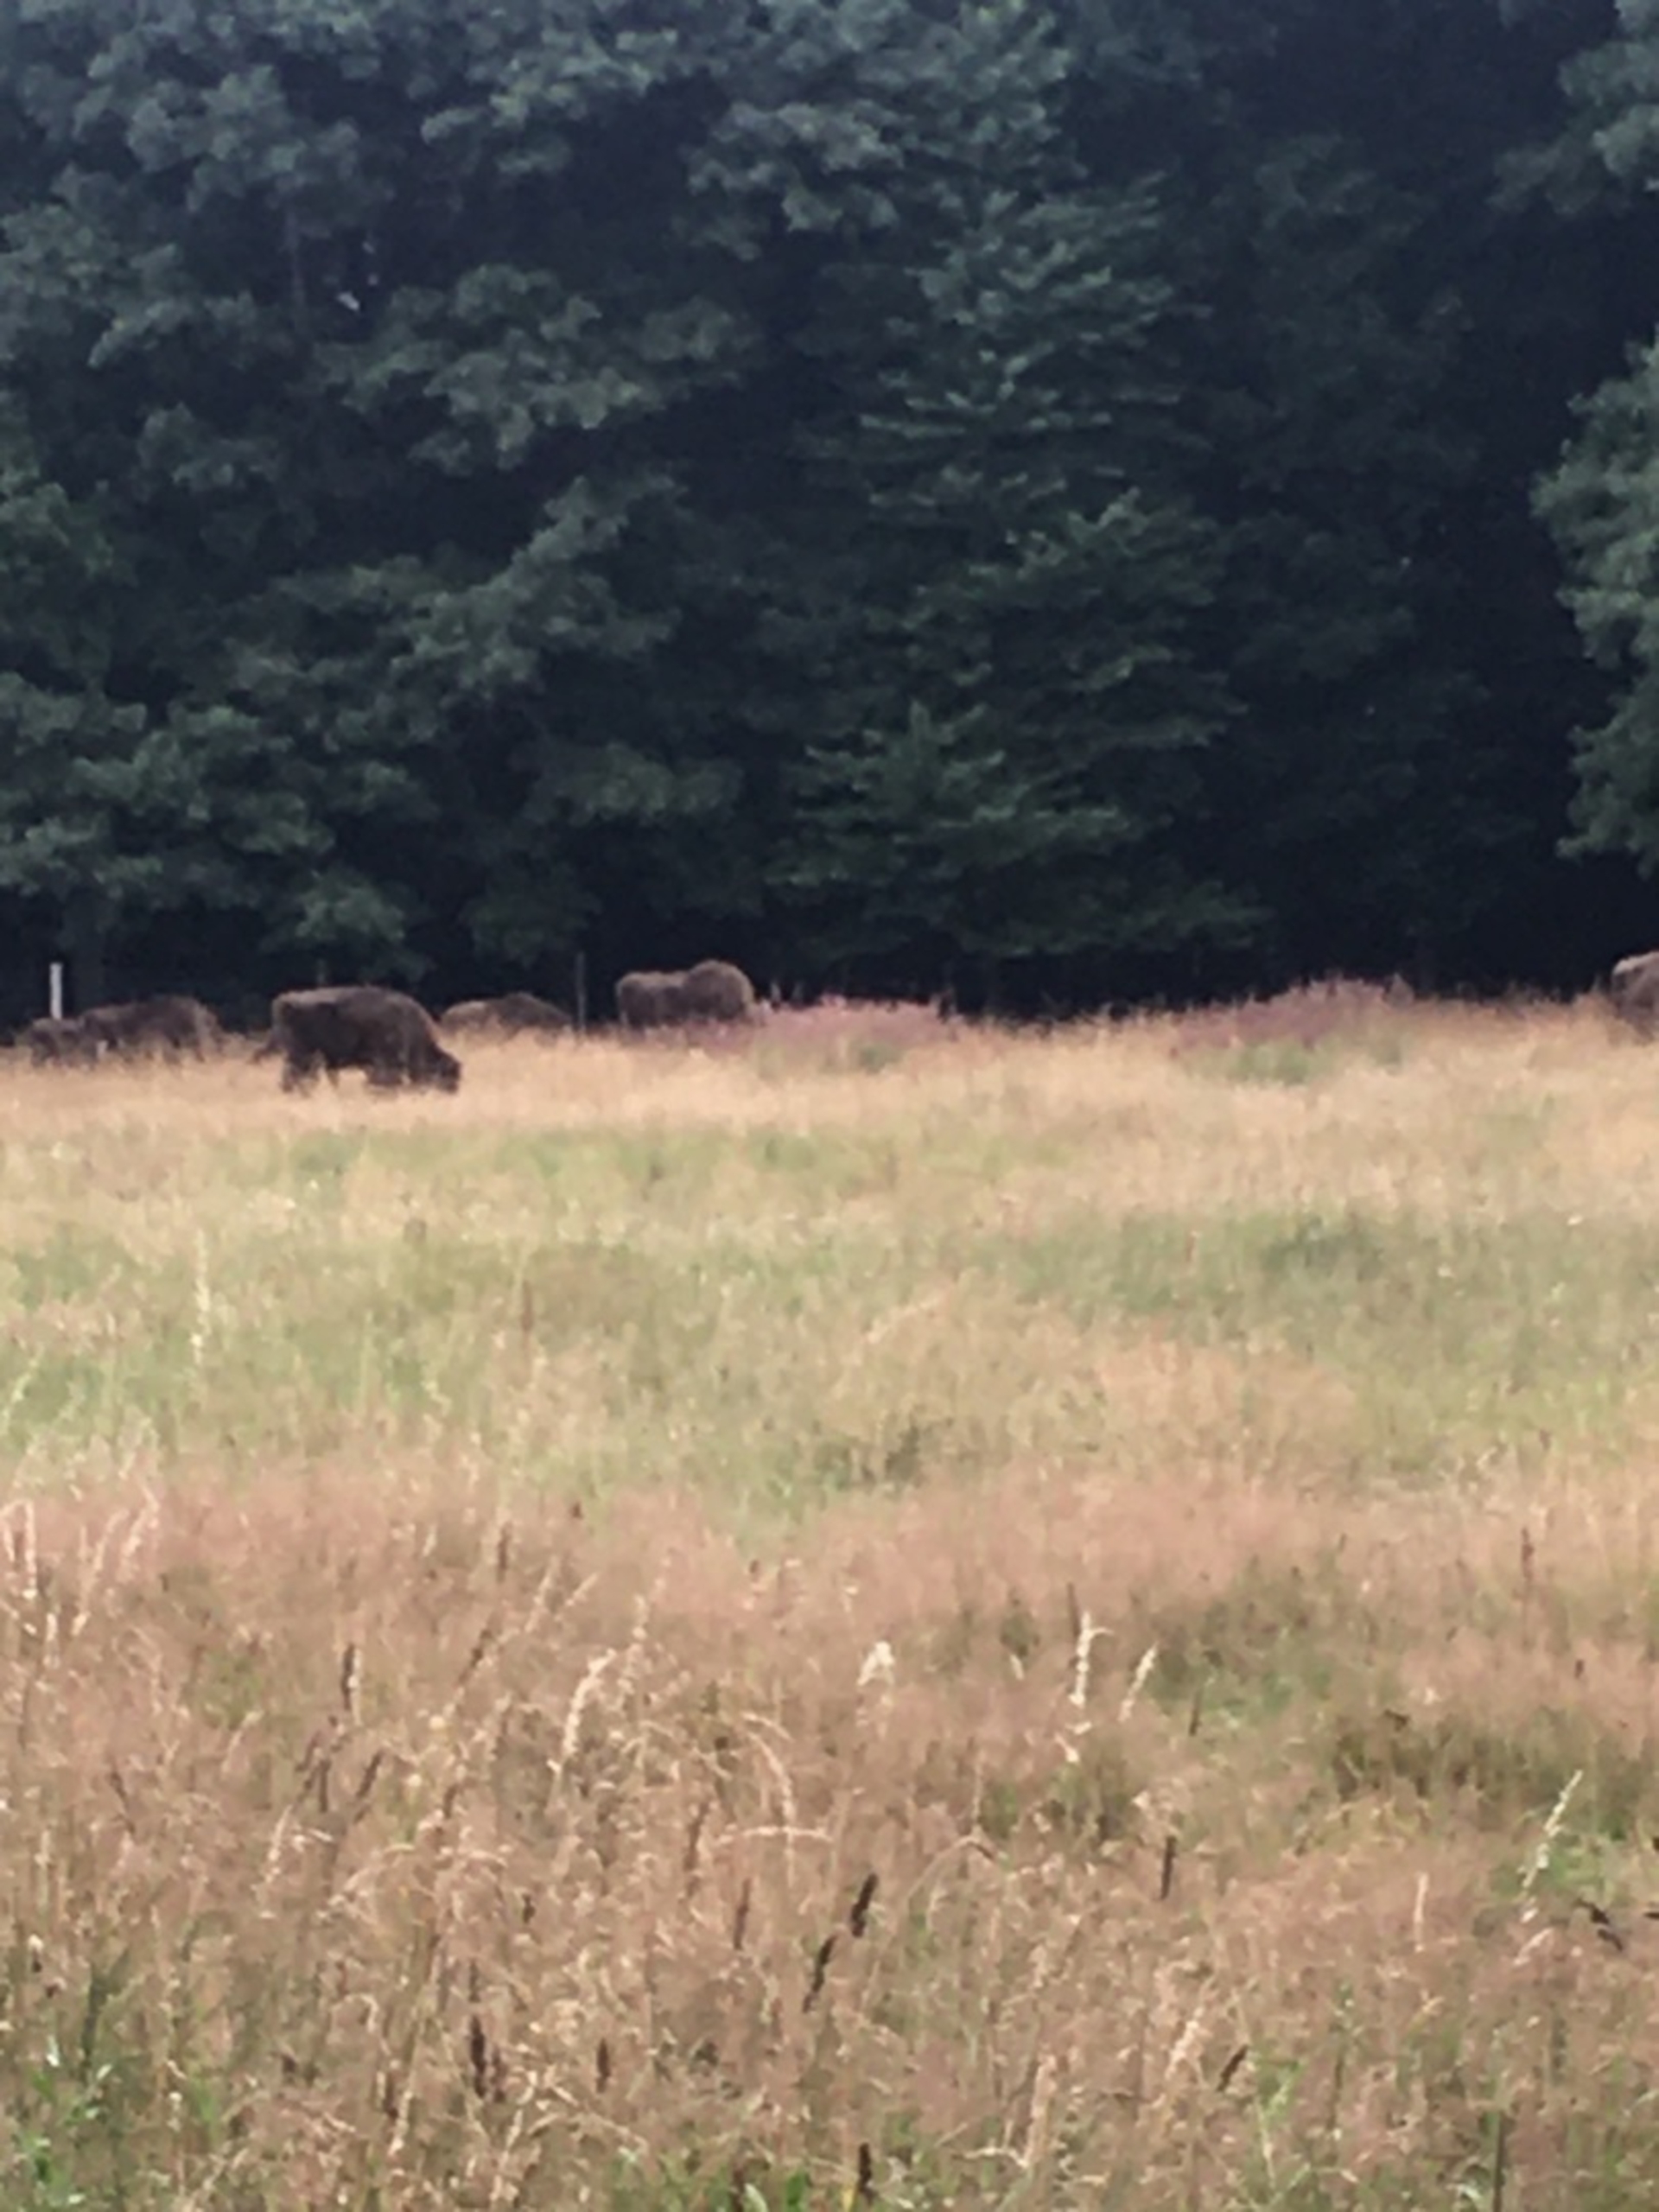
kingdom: Animalia
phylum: Chordata
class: Mammalia
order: Artiodactyla
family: Bovidae
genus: Bison
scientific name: Bison bonasus
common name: Europæisk bison
